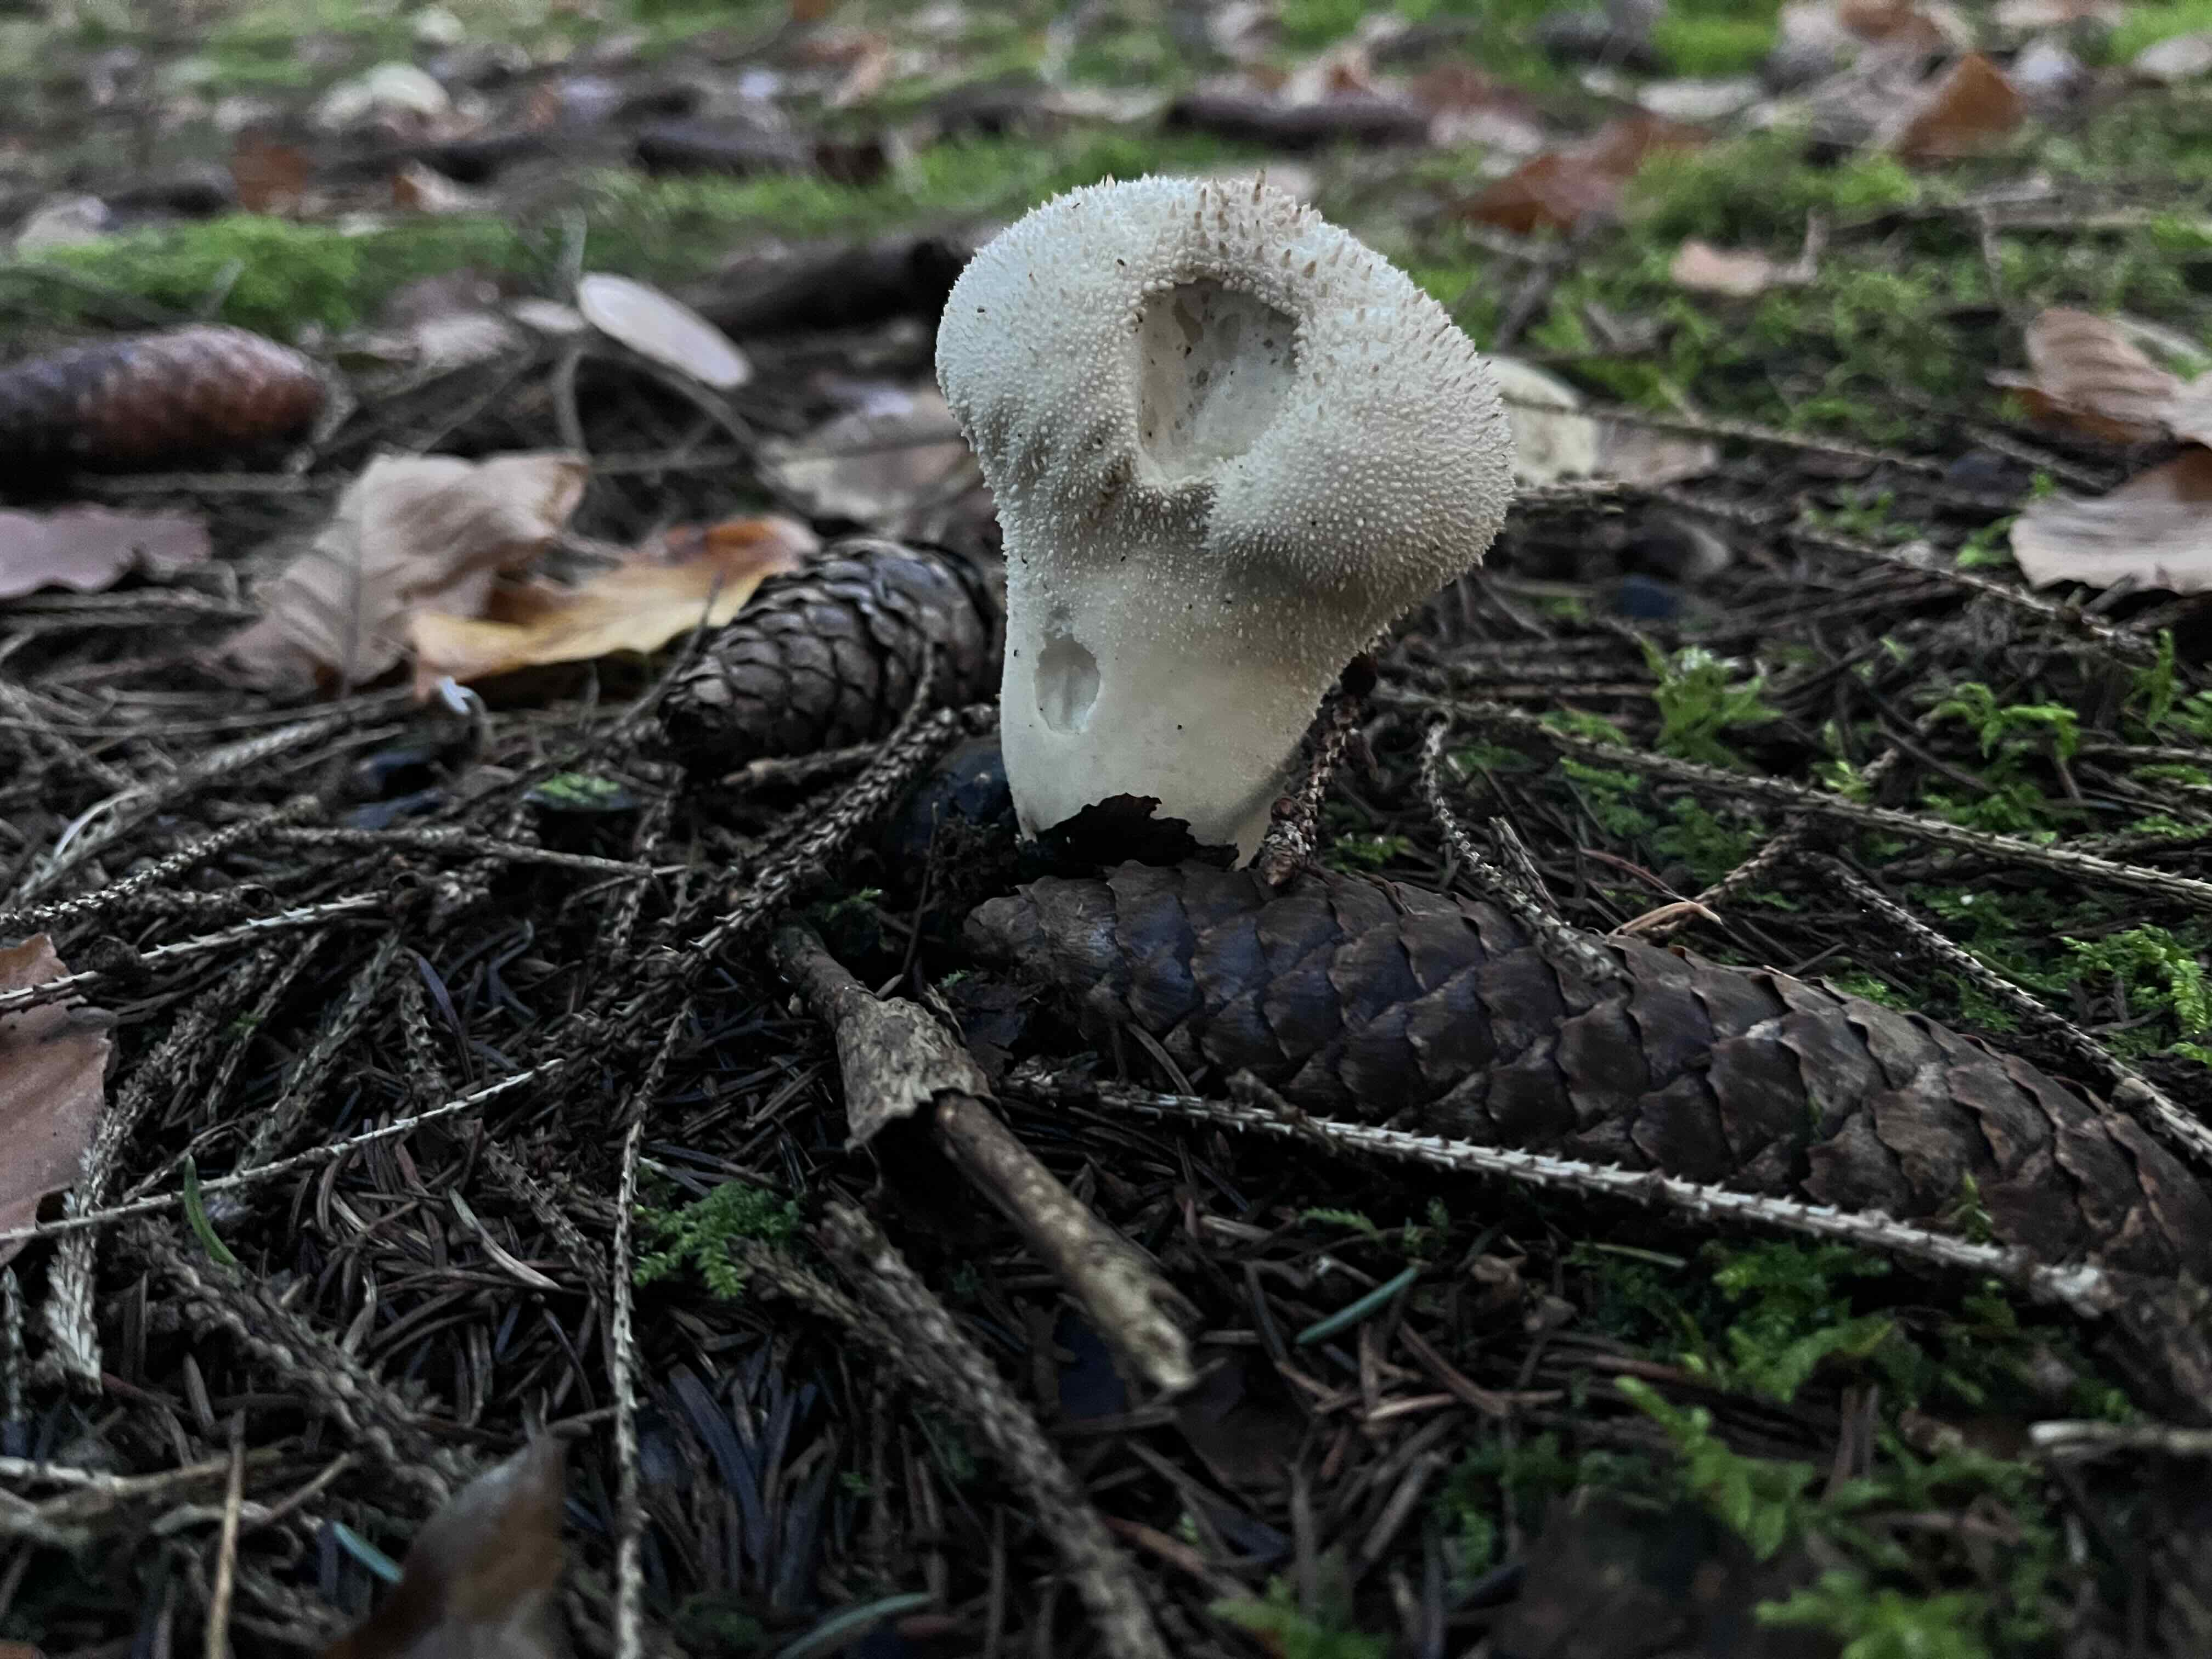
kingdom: Fungi
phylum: Basidiomycota
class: Agaricomycetes
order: Agaricales
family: Lycoperdaceae
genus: Lycoperdon
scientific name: Lycoperdon perlatum
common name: krystal-støvbold
